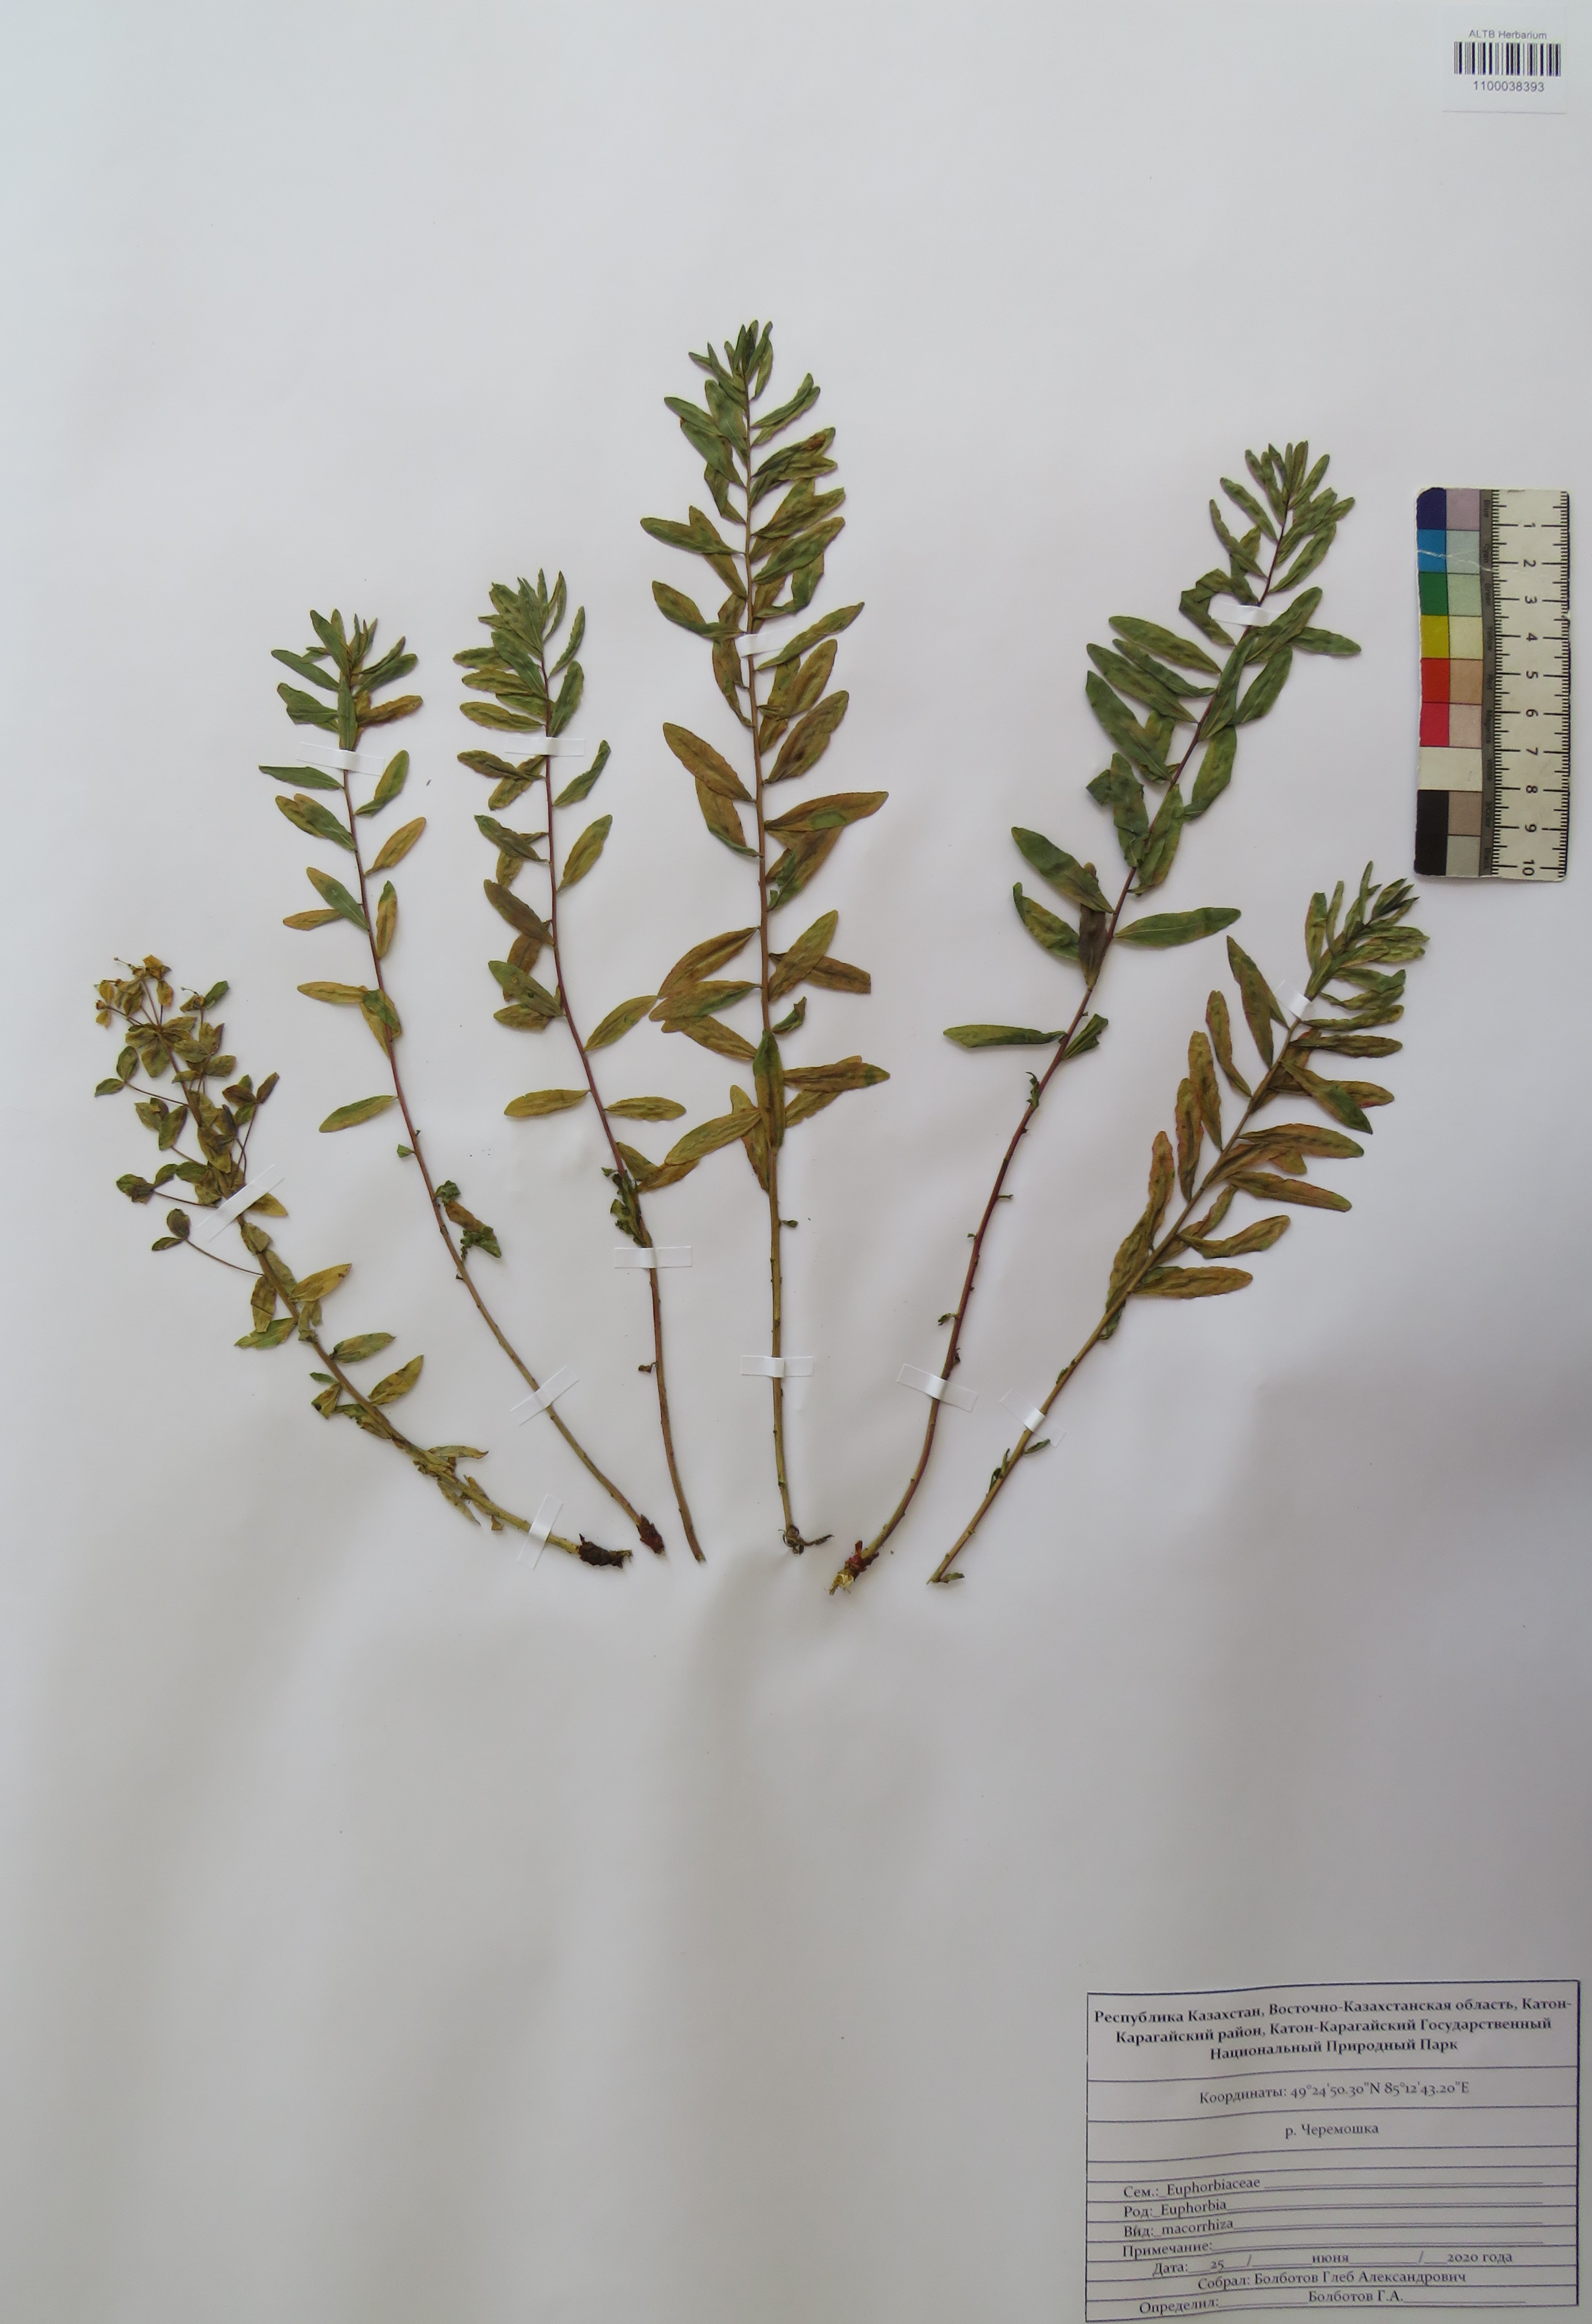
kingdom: Plantae
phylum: Tracheophyta
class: Magnoliopsida
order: Malpighiales
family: Euphorbiaceae
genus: Euphorbia
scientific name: Euphorbia macrorhiza
